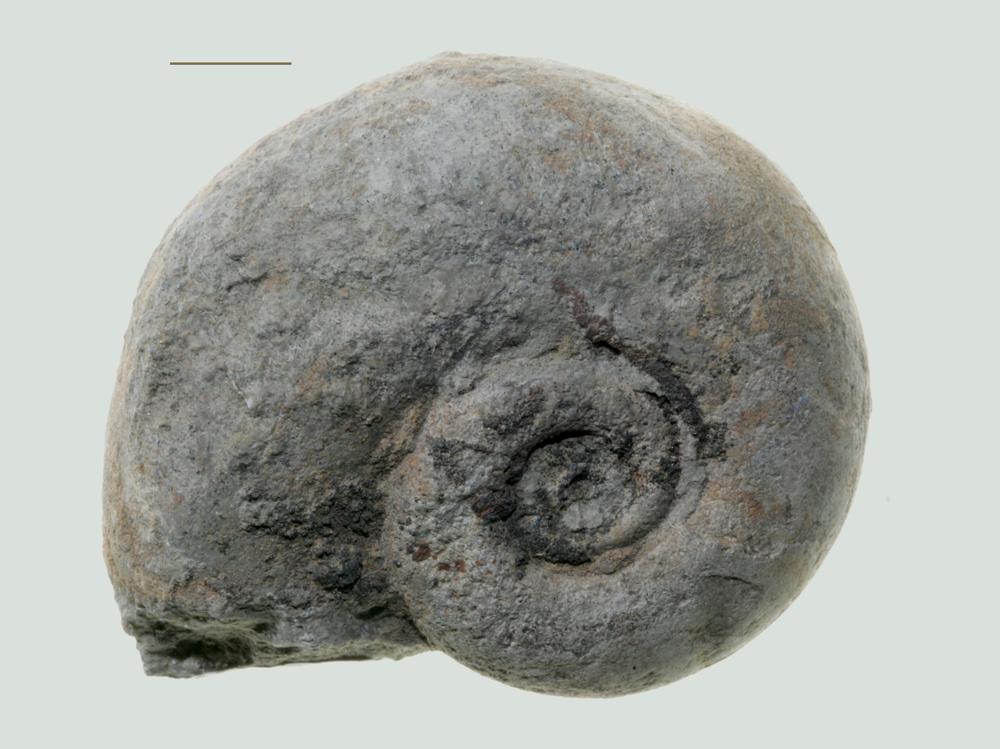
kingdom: Animalia
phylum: Mollusca
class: Gastropoda
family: Lesueurillidae
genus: Lesueurilla
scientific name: Lesueurilla Maclurea infundibulum
